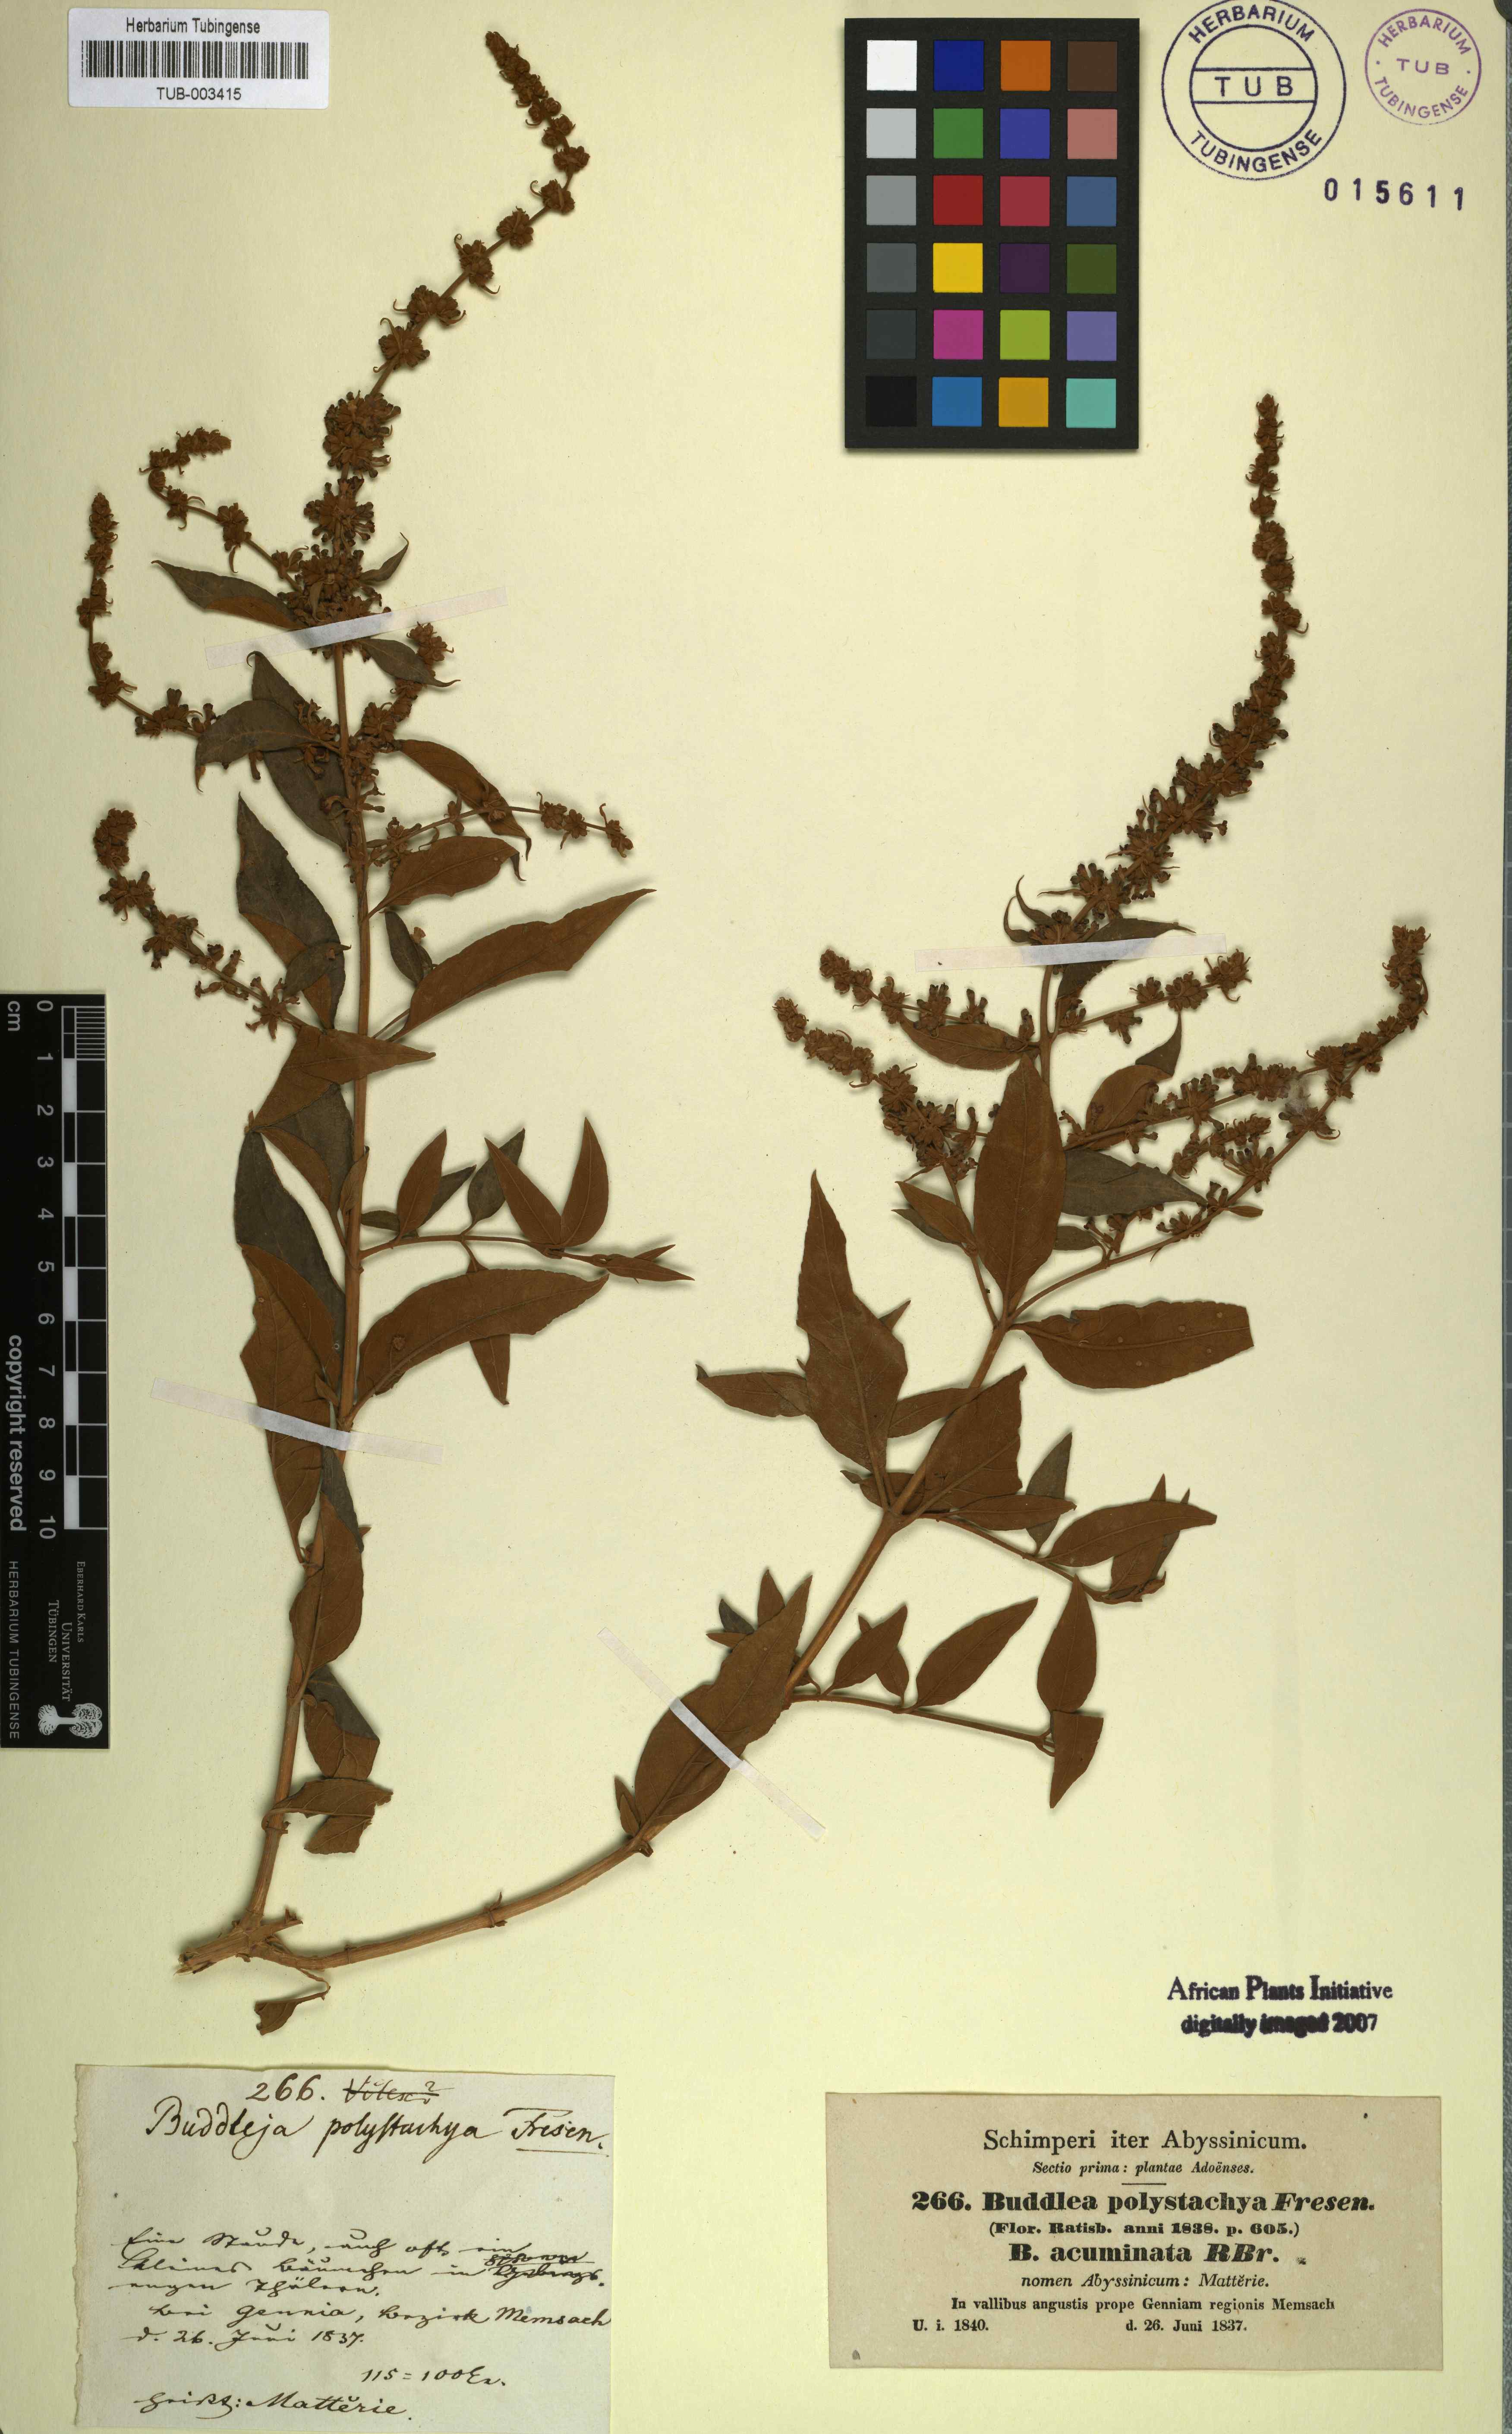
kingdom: Plantae
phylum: Tracheophyta
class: Magnoliopsida
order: Lamiales
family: Scrophulariaceae
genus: Buddleja
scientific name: Buddleja polystachya
